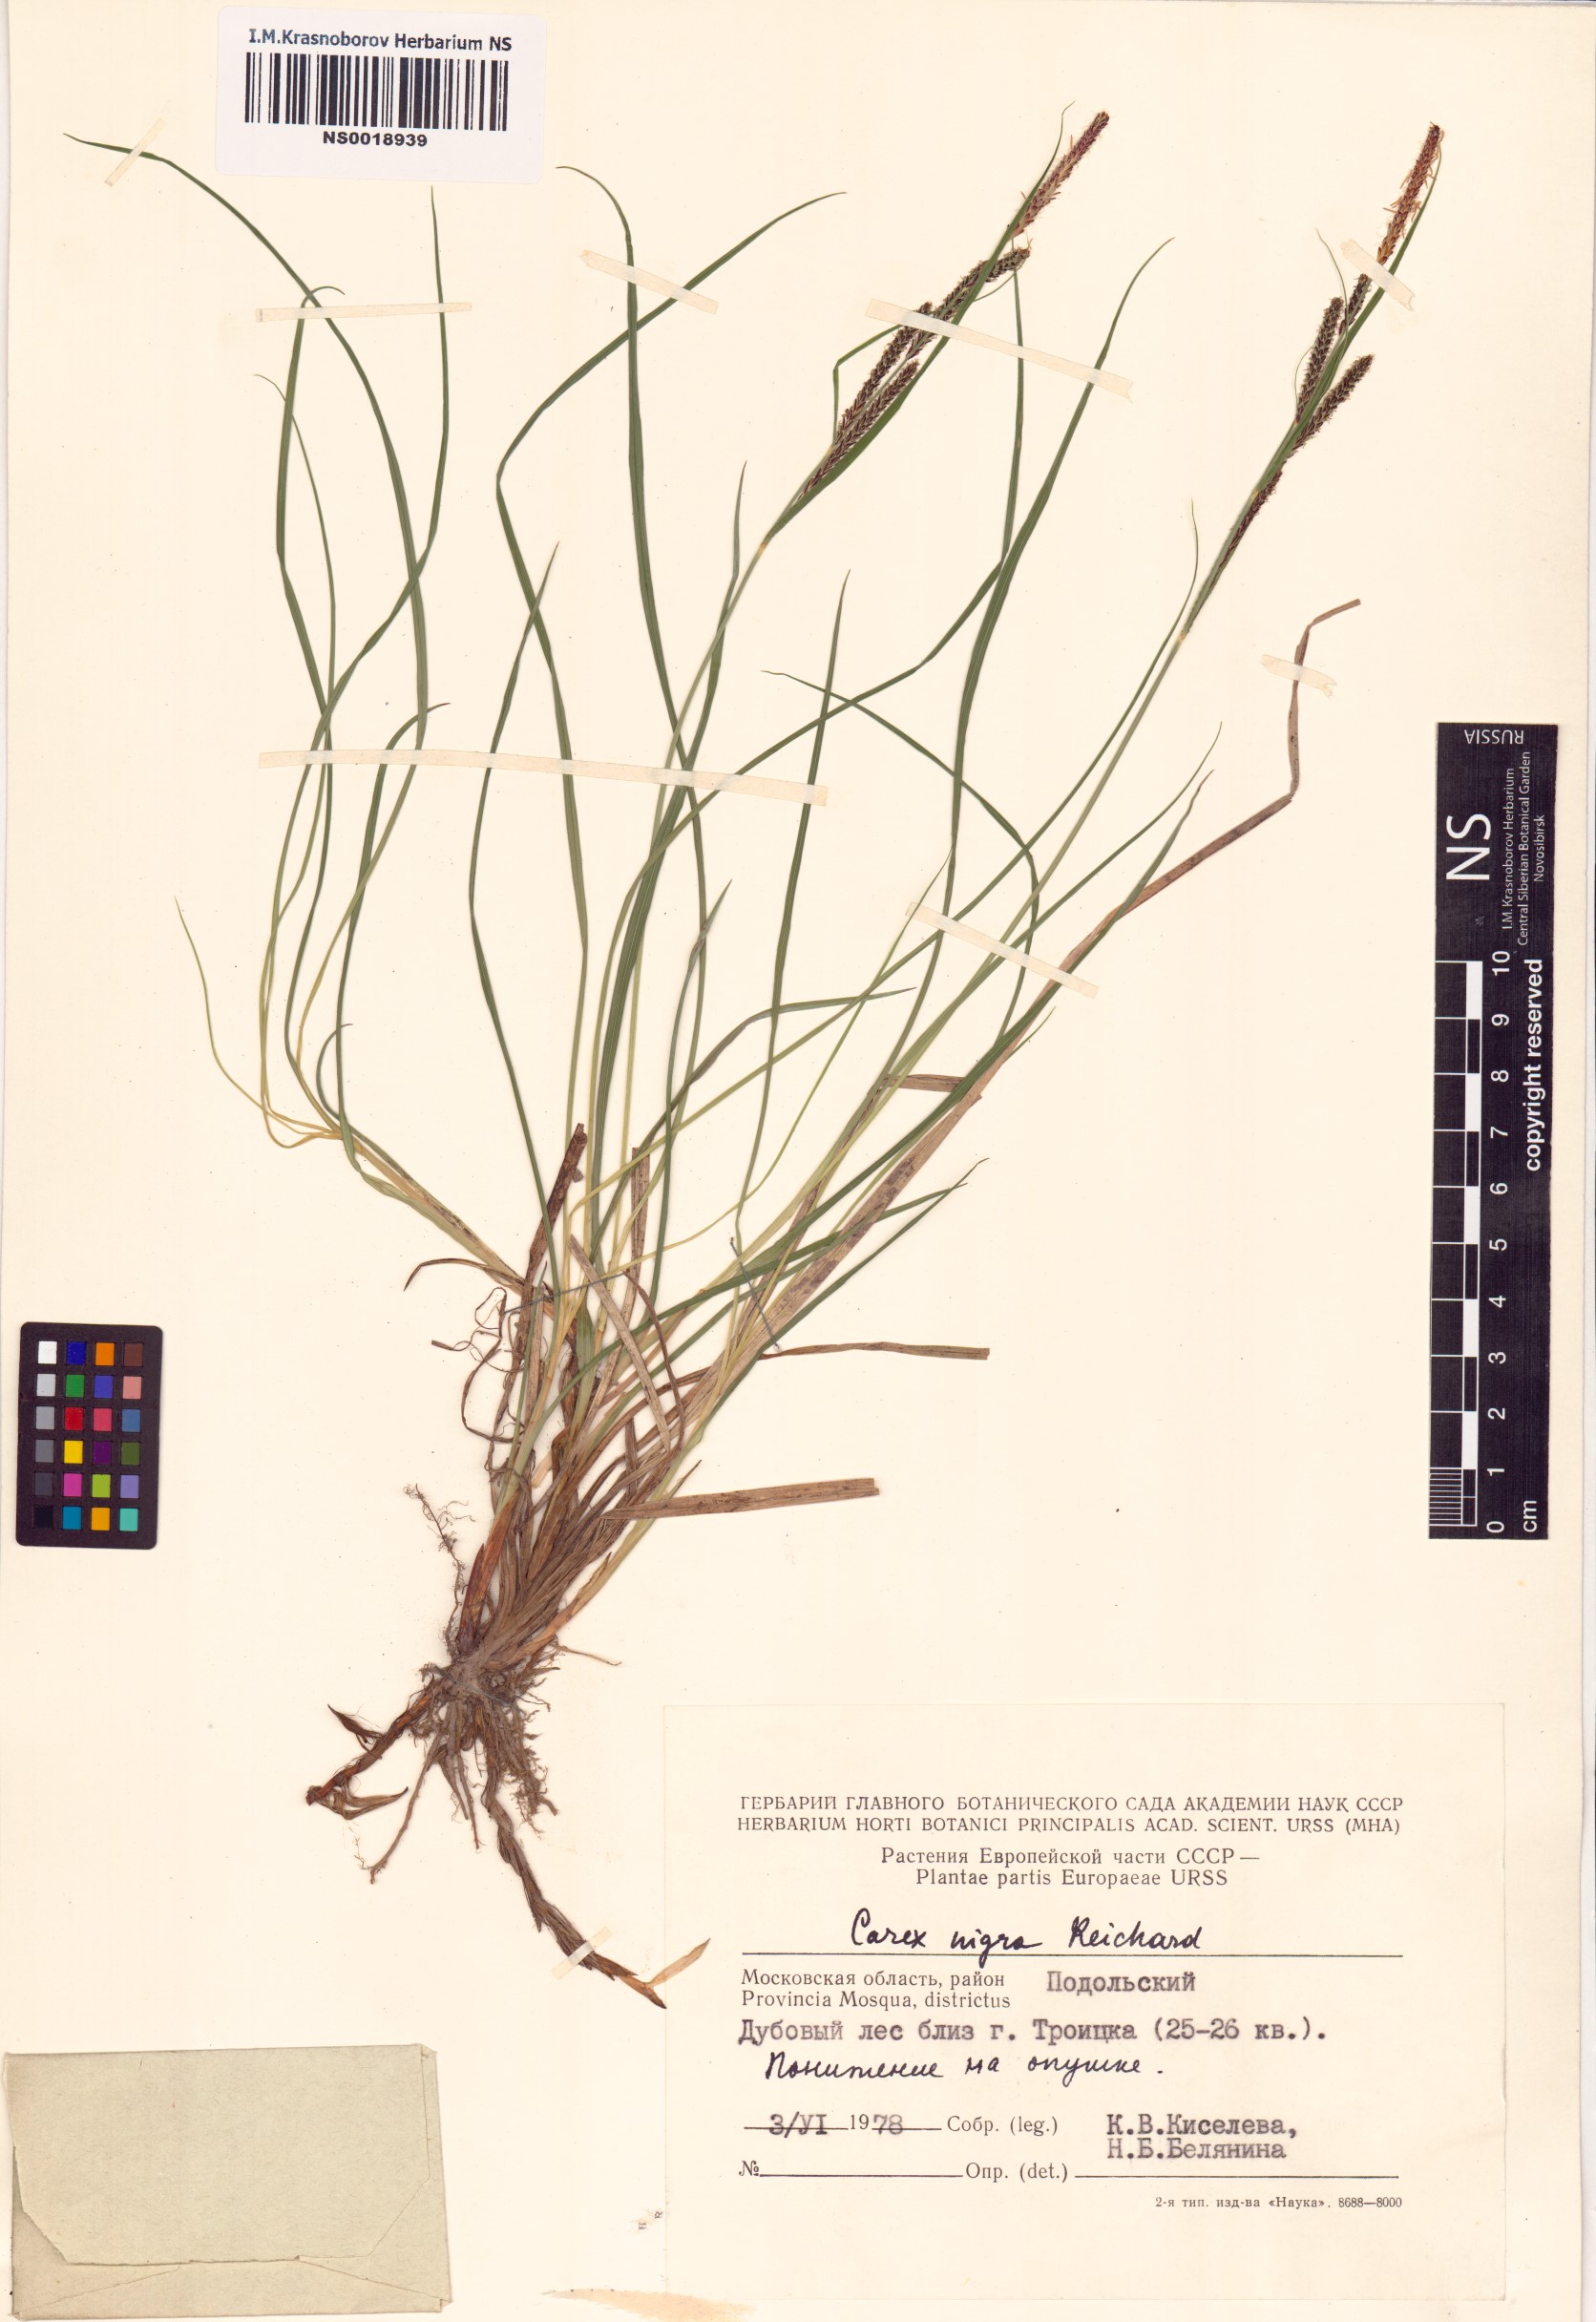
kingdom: Plantae
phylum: Tracheophyta
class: Liliopsida
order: Poales
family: Cyperaceae
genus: Carex
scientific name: Carex nigra
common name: Common sedge
